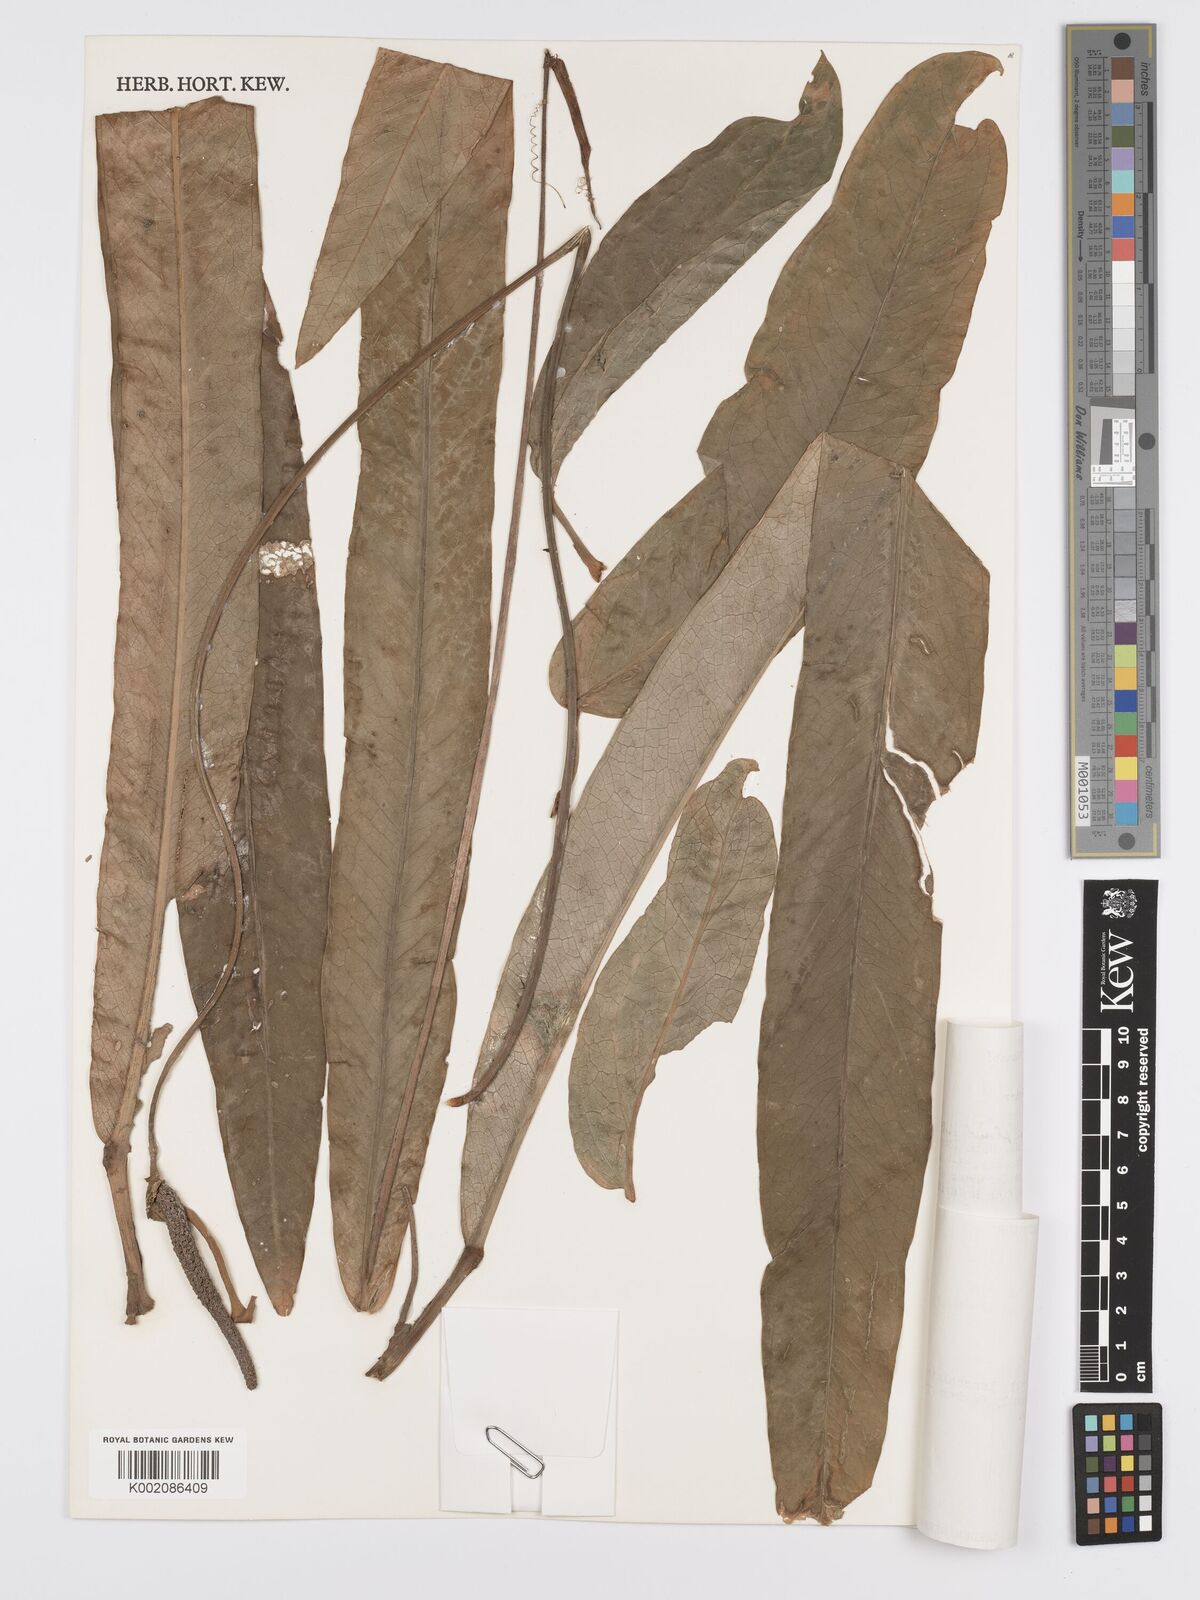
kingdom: Plantae
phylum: Tracheophyta
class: Liliopsida
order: Alismatales
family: Araceae
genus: Anthurium
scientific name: Anthurium linguifolium
